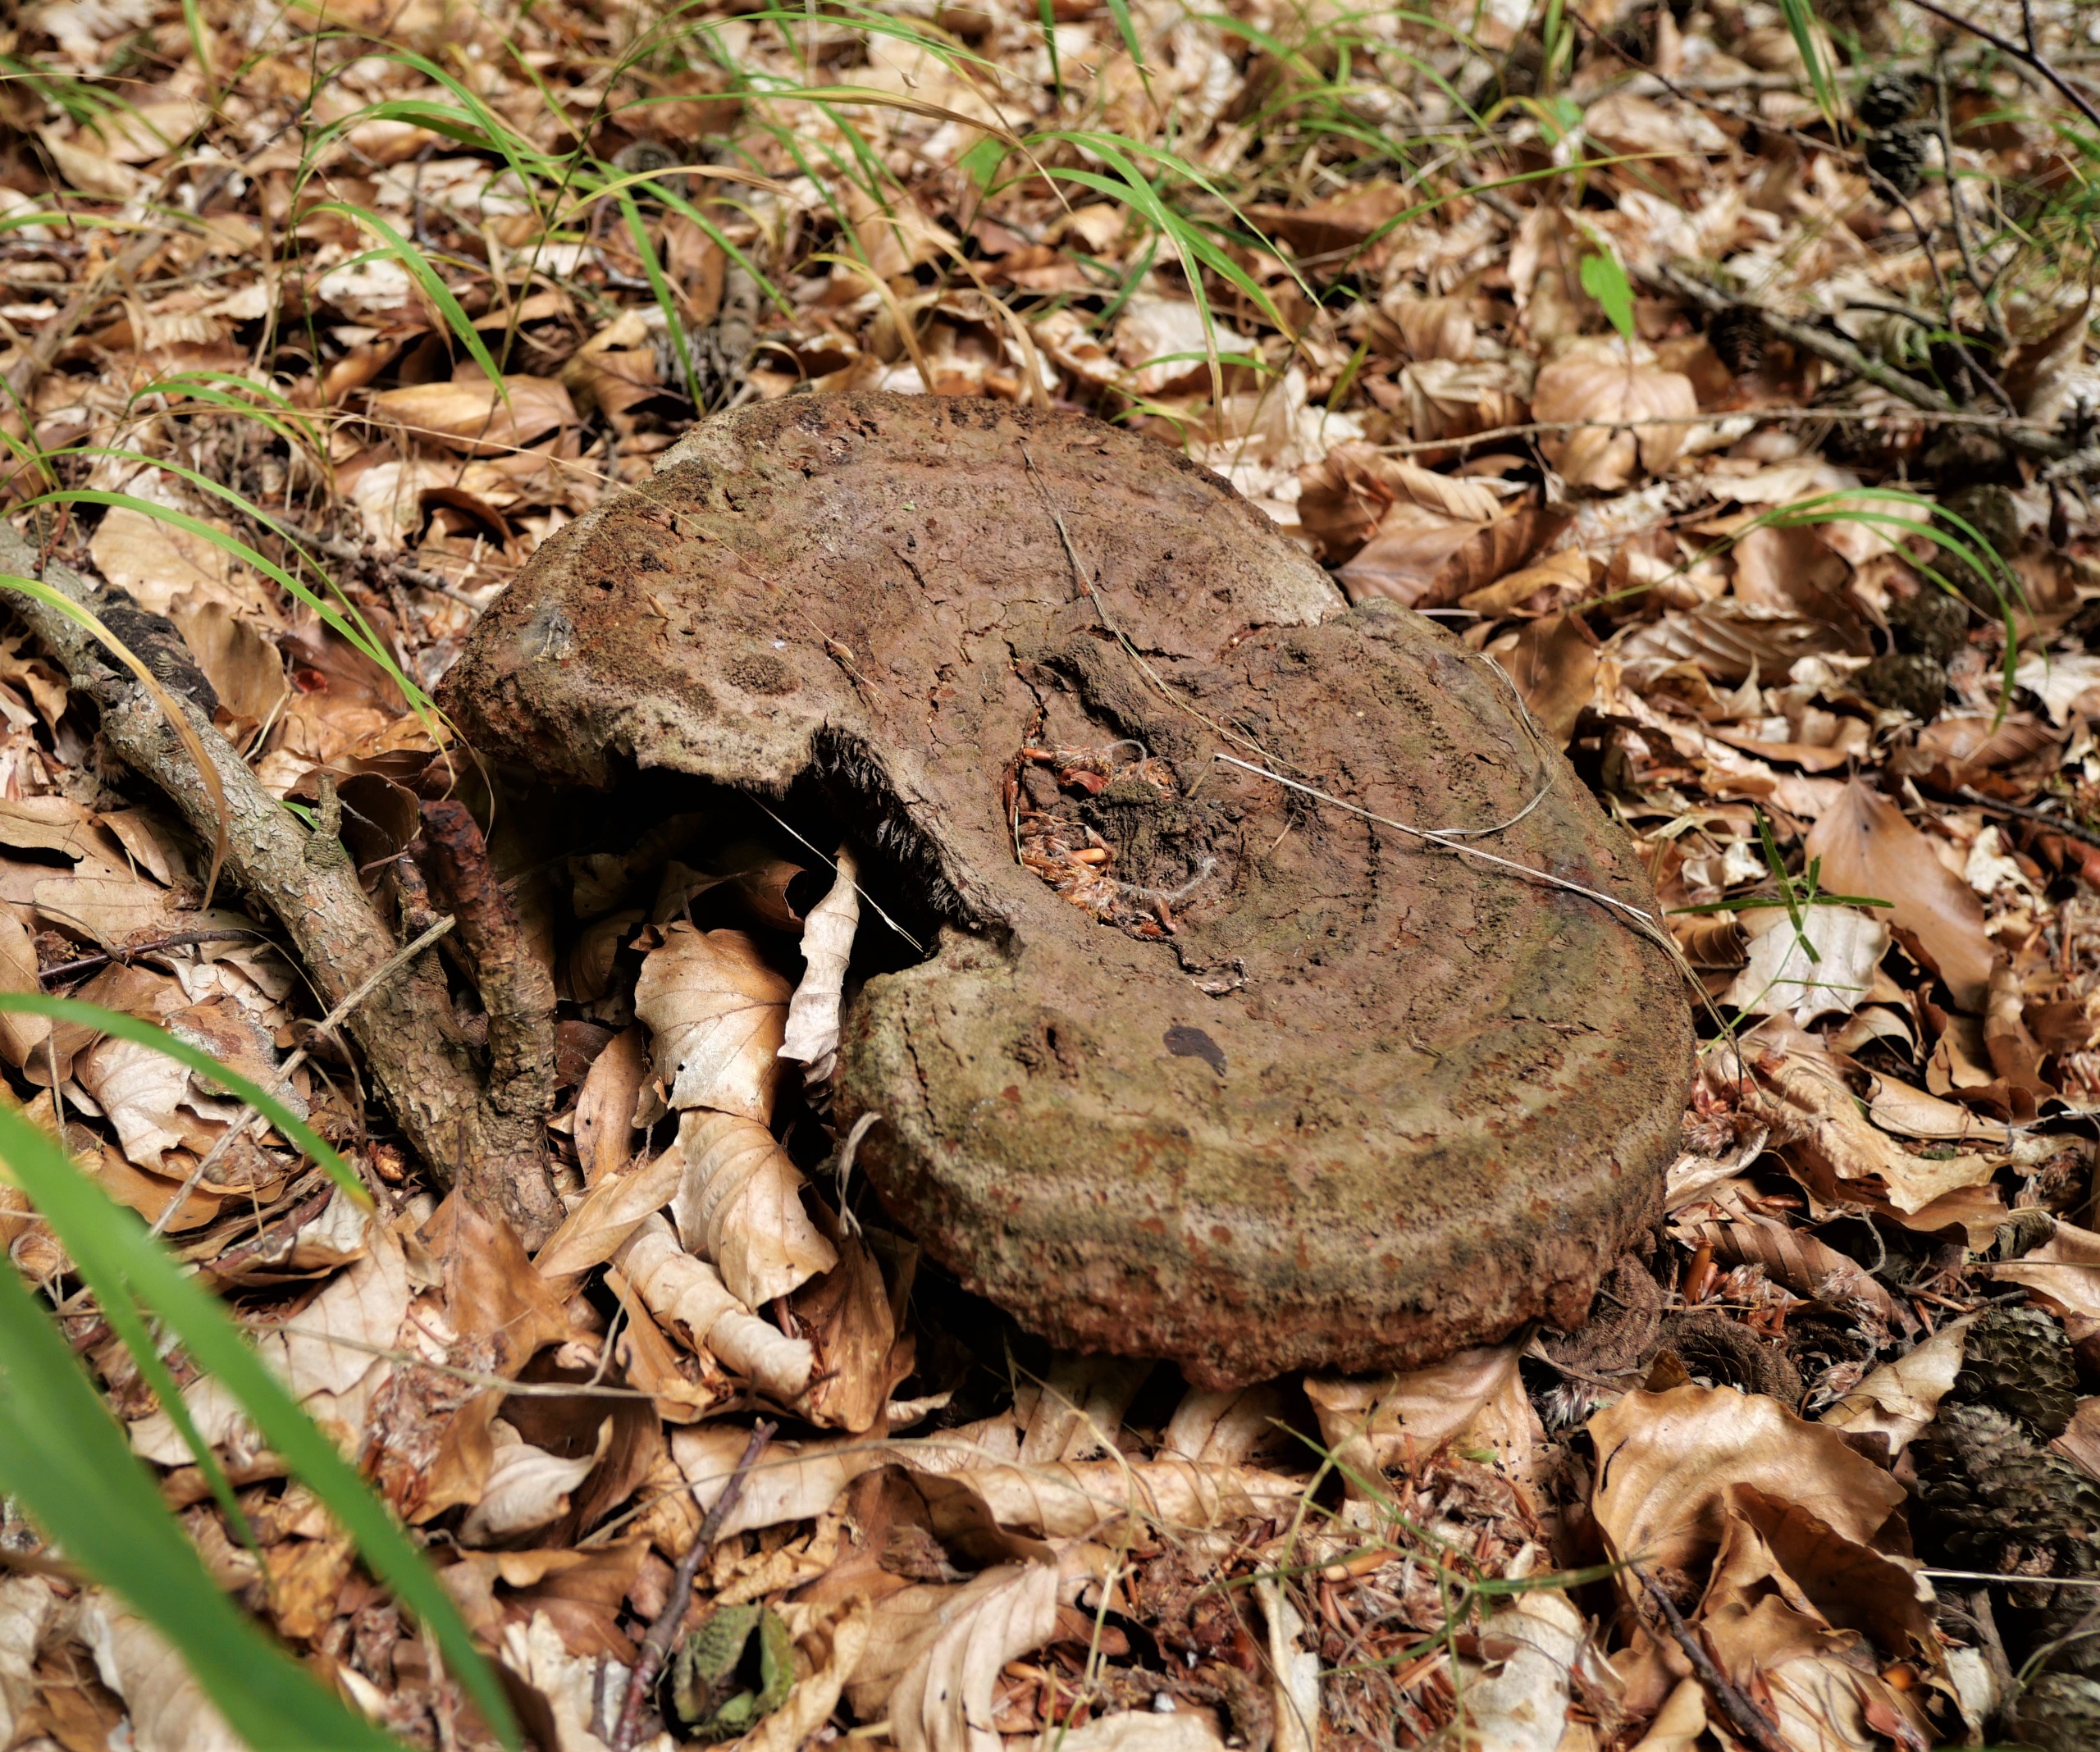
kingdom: Fungi
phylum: Basidiomycota
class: Agaricomycetes
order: Polyporales
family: Laetiporaceae
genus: Phaeolus
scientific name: Phaeolus schweinitzii
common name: Brunporesvamp
